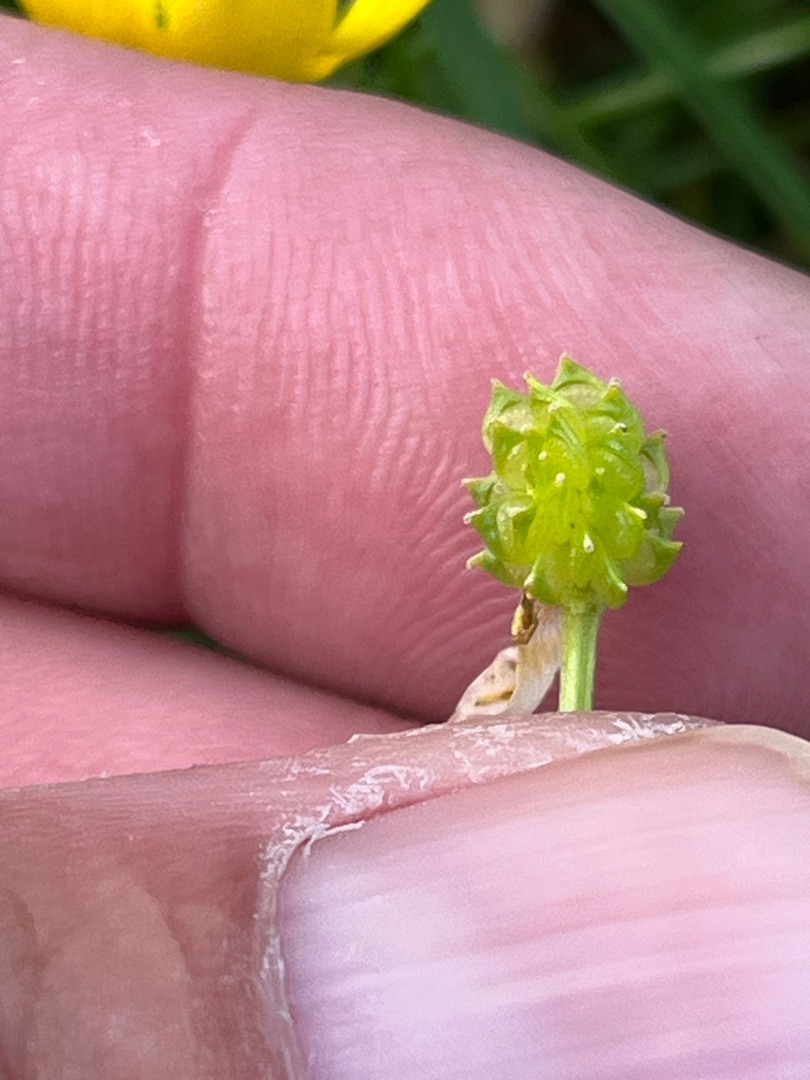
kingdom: Plantae
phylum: Tracheophyta
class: Magnoliopsida
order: Ranunculales
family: Ranunculaceae
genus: Ranunculus
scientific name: Ranunculus sardous
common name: Stivhåret ranunkel
